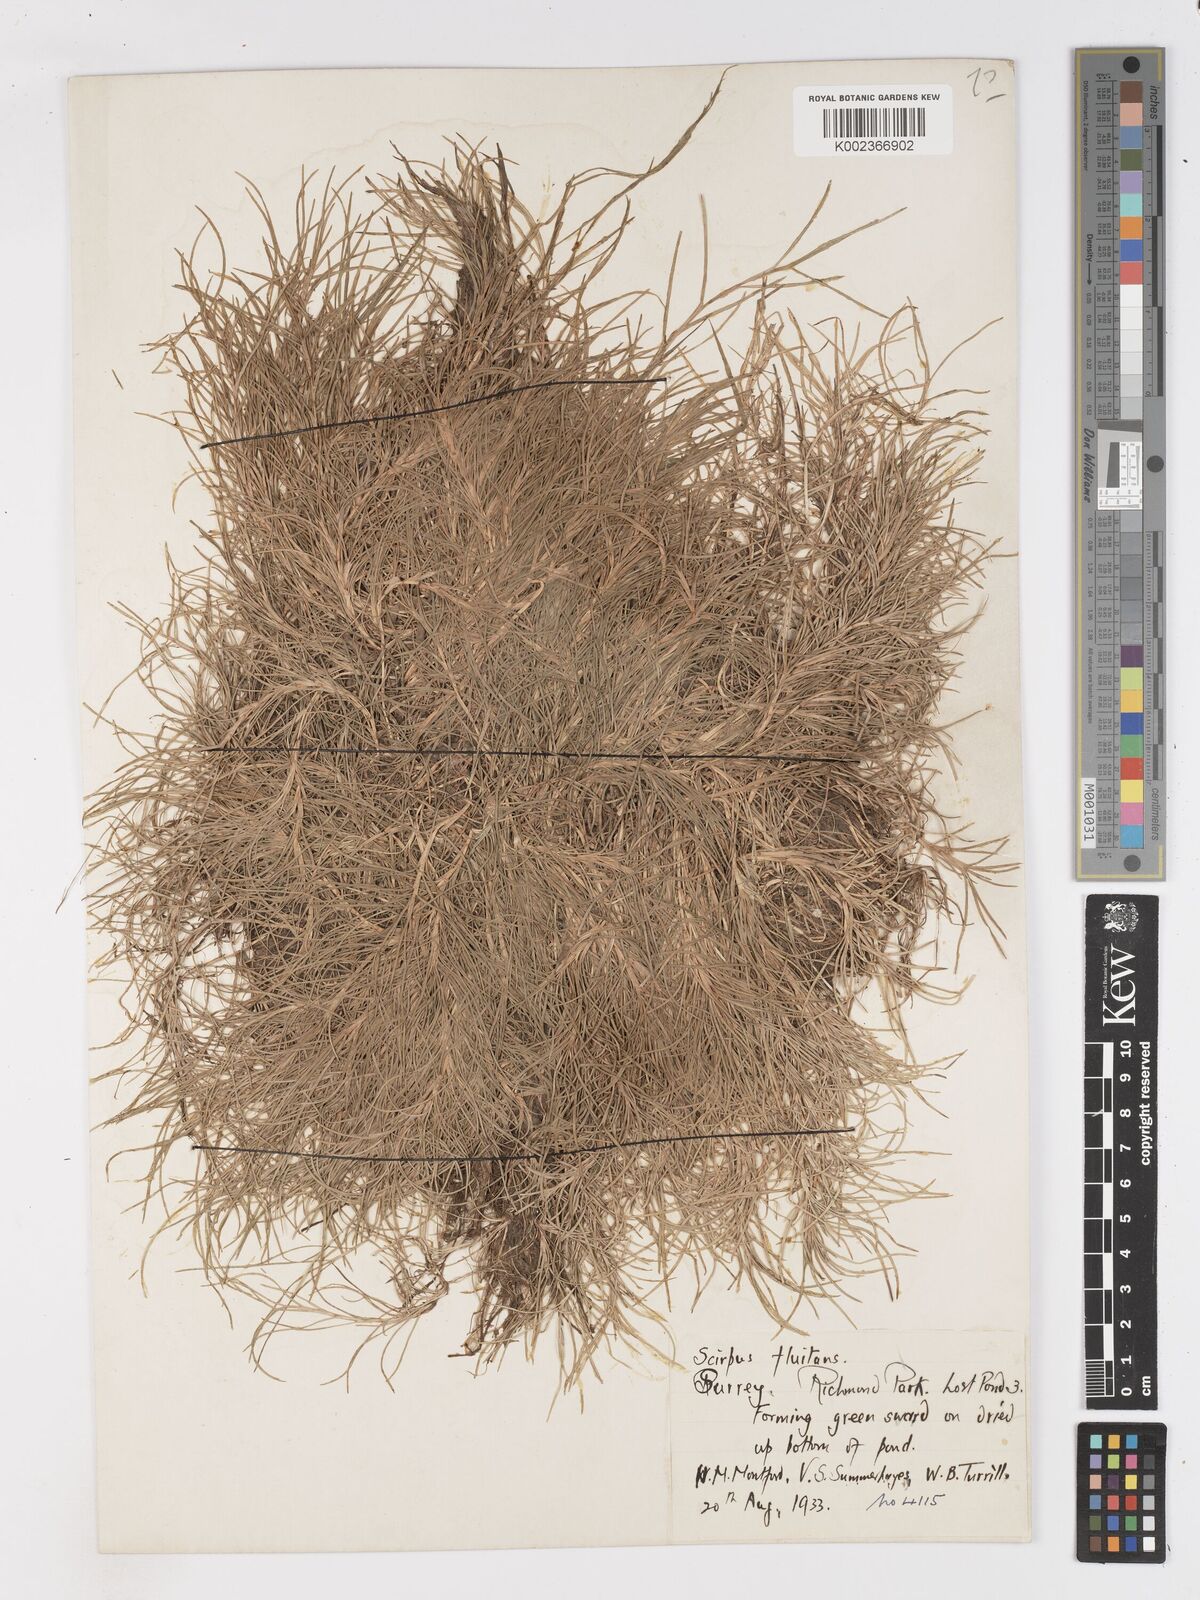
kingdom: Plantae
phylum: Tracheophyta
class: Liliopsida
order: Poales
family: Cyperaceae
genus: Isolepis
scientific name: Isolepis fluitans
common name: Floating club-rush
